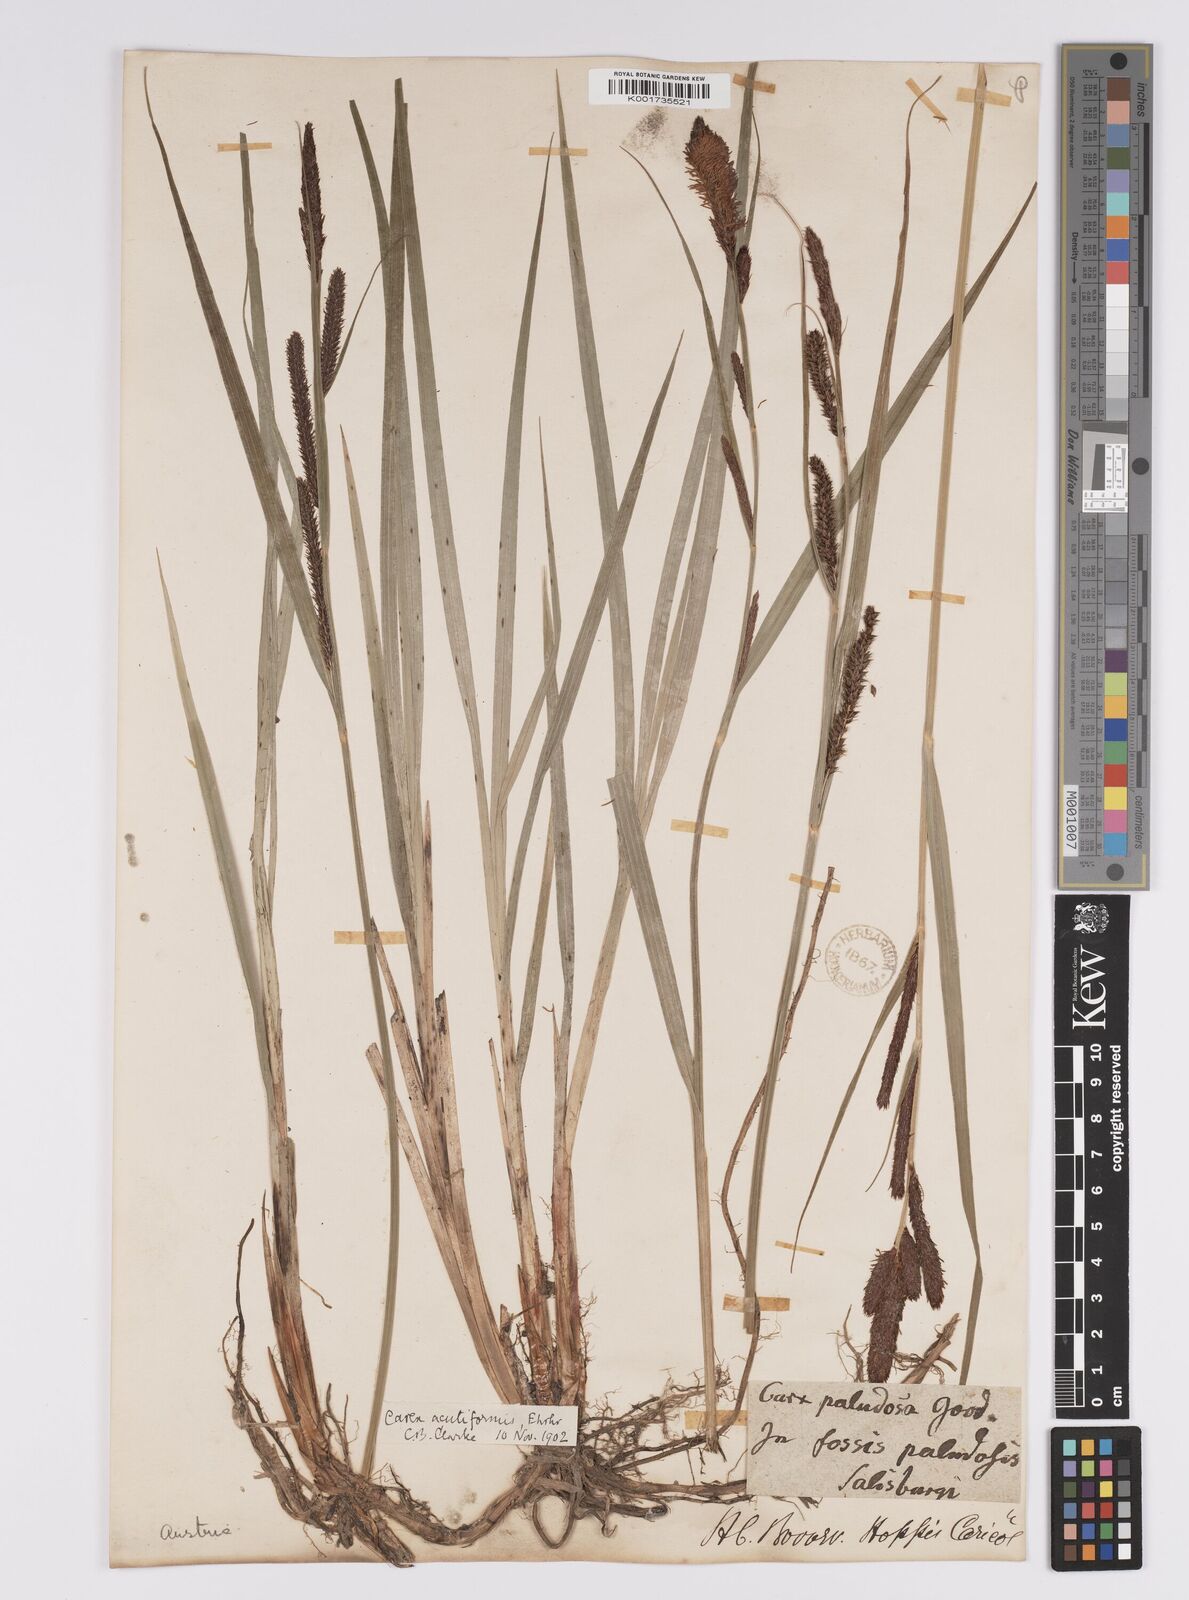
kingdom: Plantae
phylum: Tracheophyta
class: Liliopsida
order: Poales
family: Cyperaceae
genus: Carex
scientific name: Carex acutiformis
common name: Lesser pond-sedge
